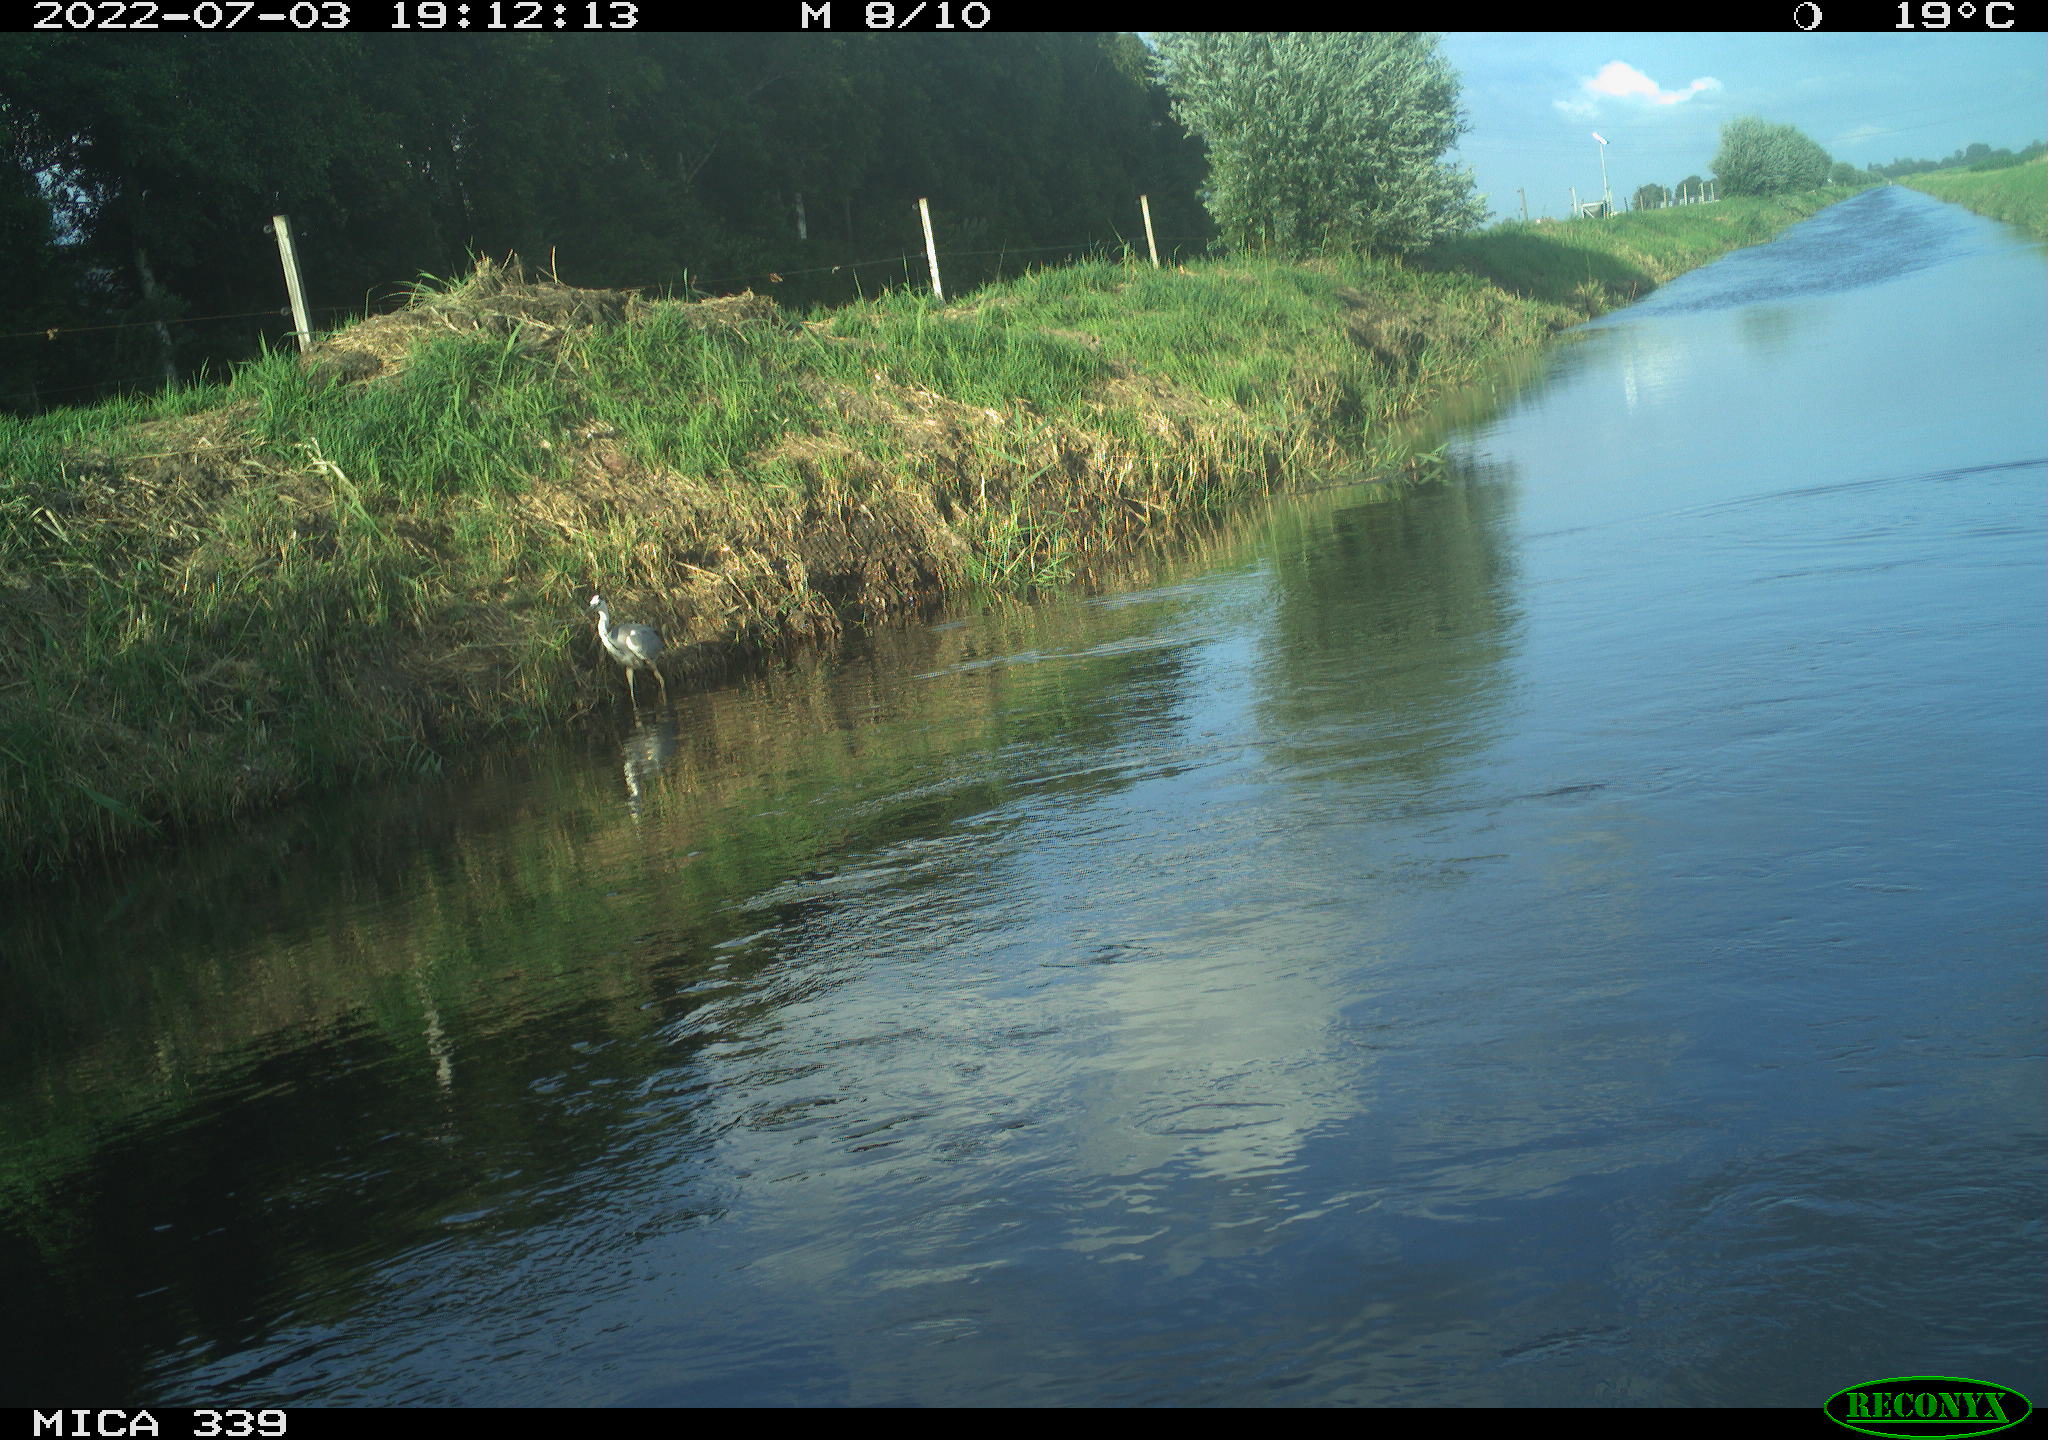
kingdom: Animalia
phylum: Chordata
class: Aves
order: Pelecaniformes
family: Ardeidae
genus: Ardea
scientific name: Ardea cinerea
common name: Grey heron
